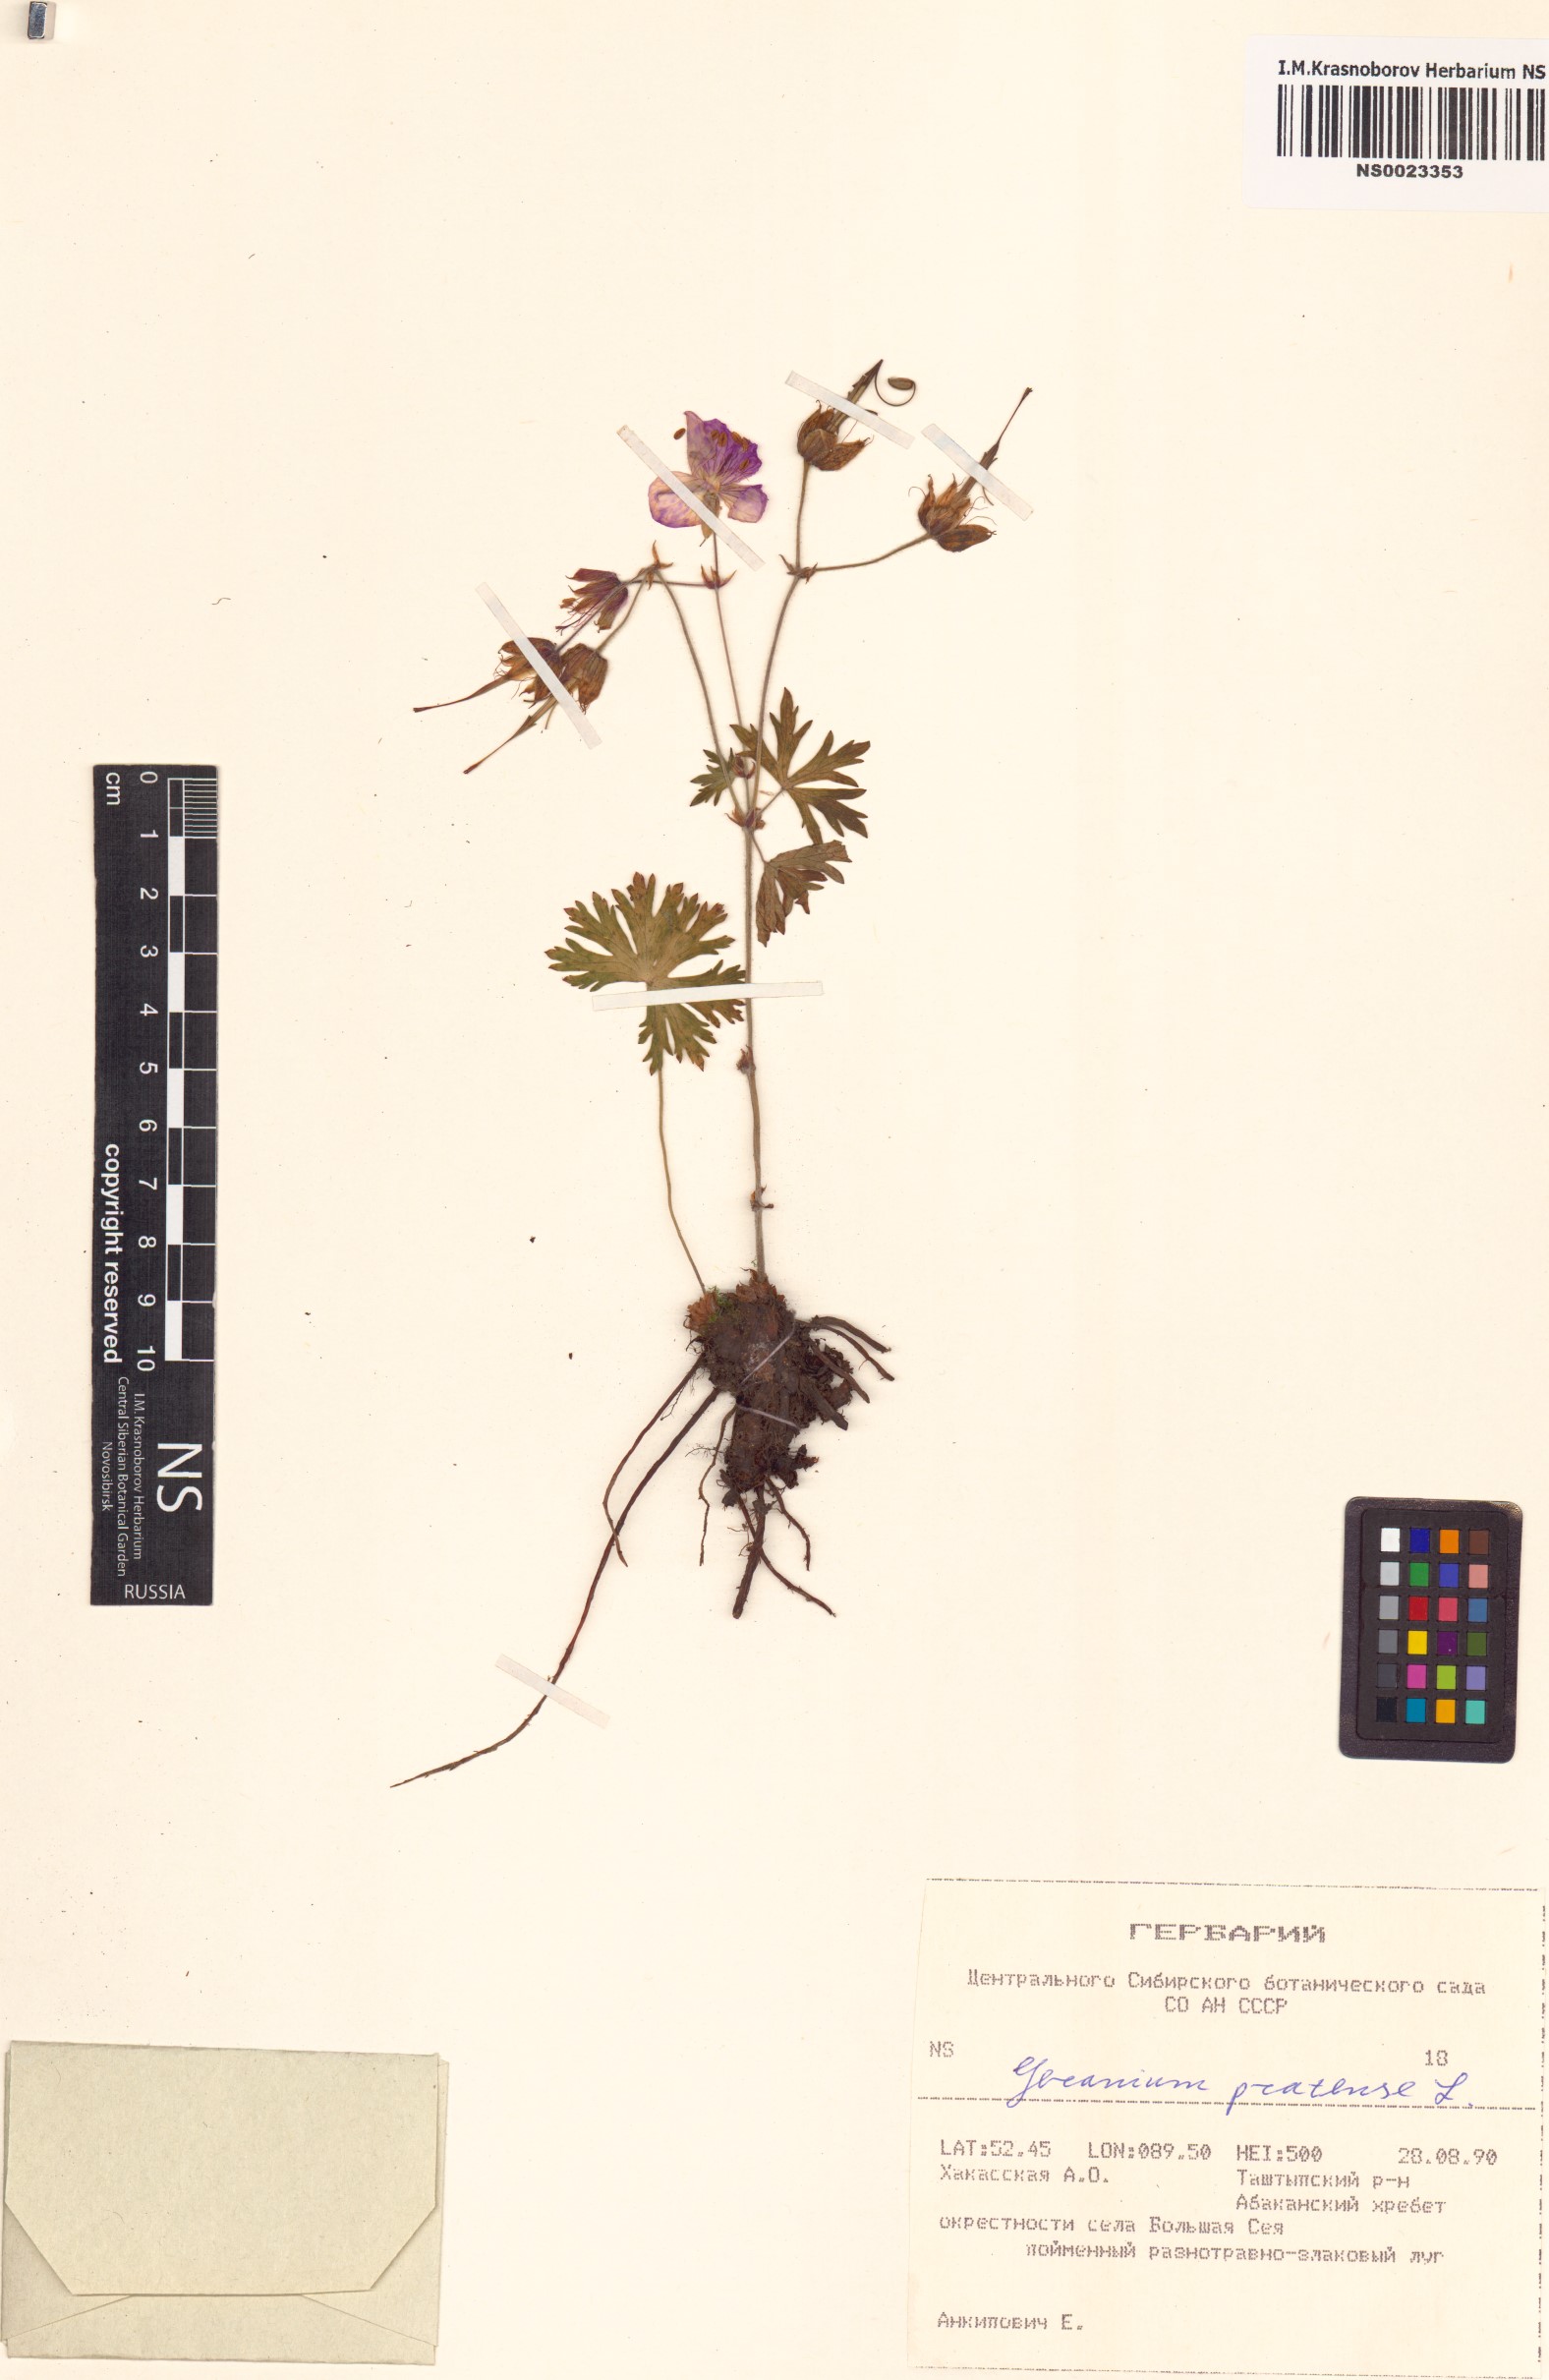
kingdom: Plantae
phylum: Tracheophyta
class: Magnoliopsida
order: Geraniales
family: Geraniaceae
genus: Geranium
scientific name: Geranium pratense
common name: Meadow crane's-bill
